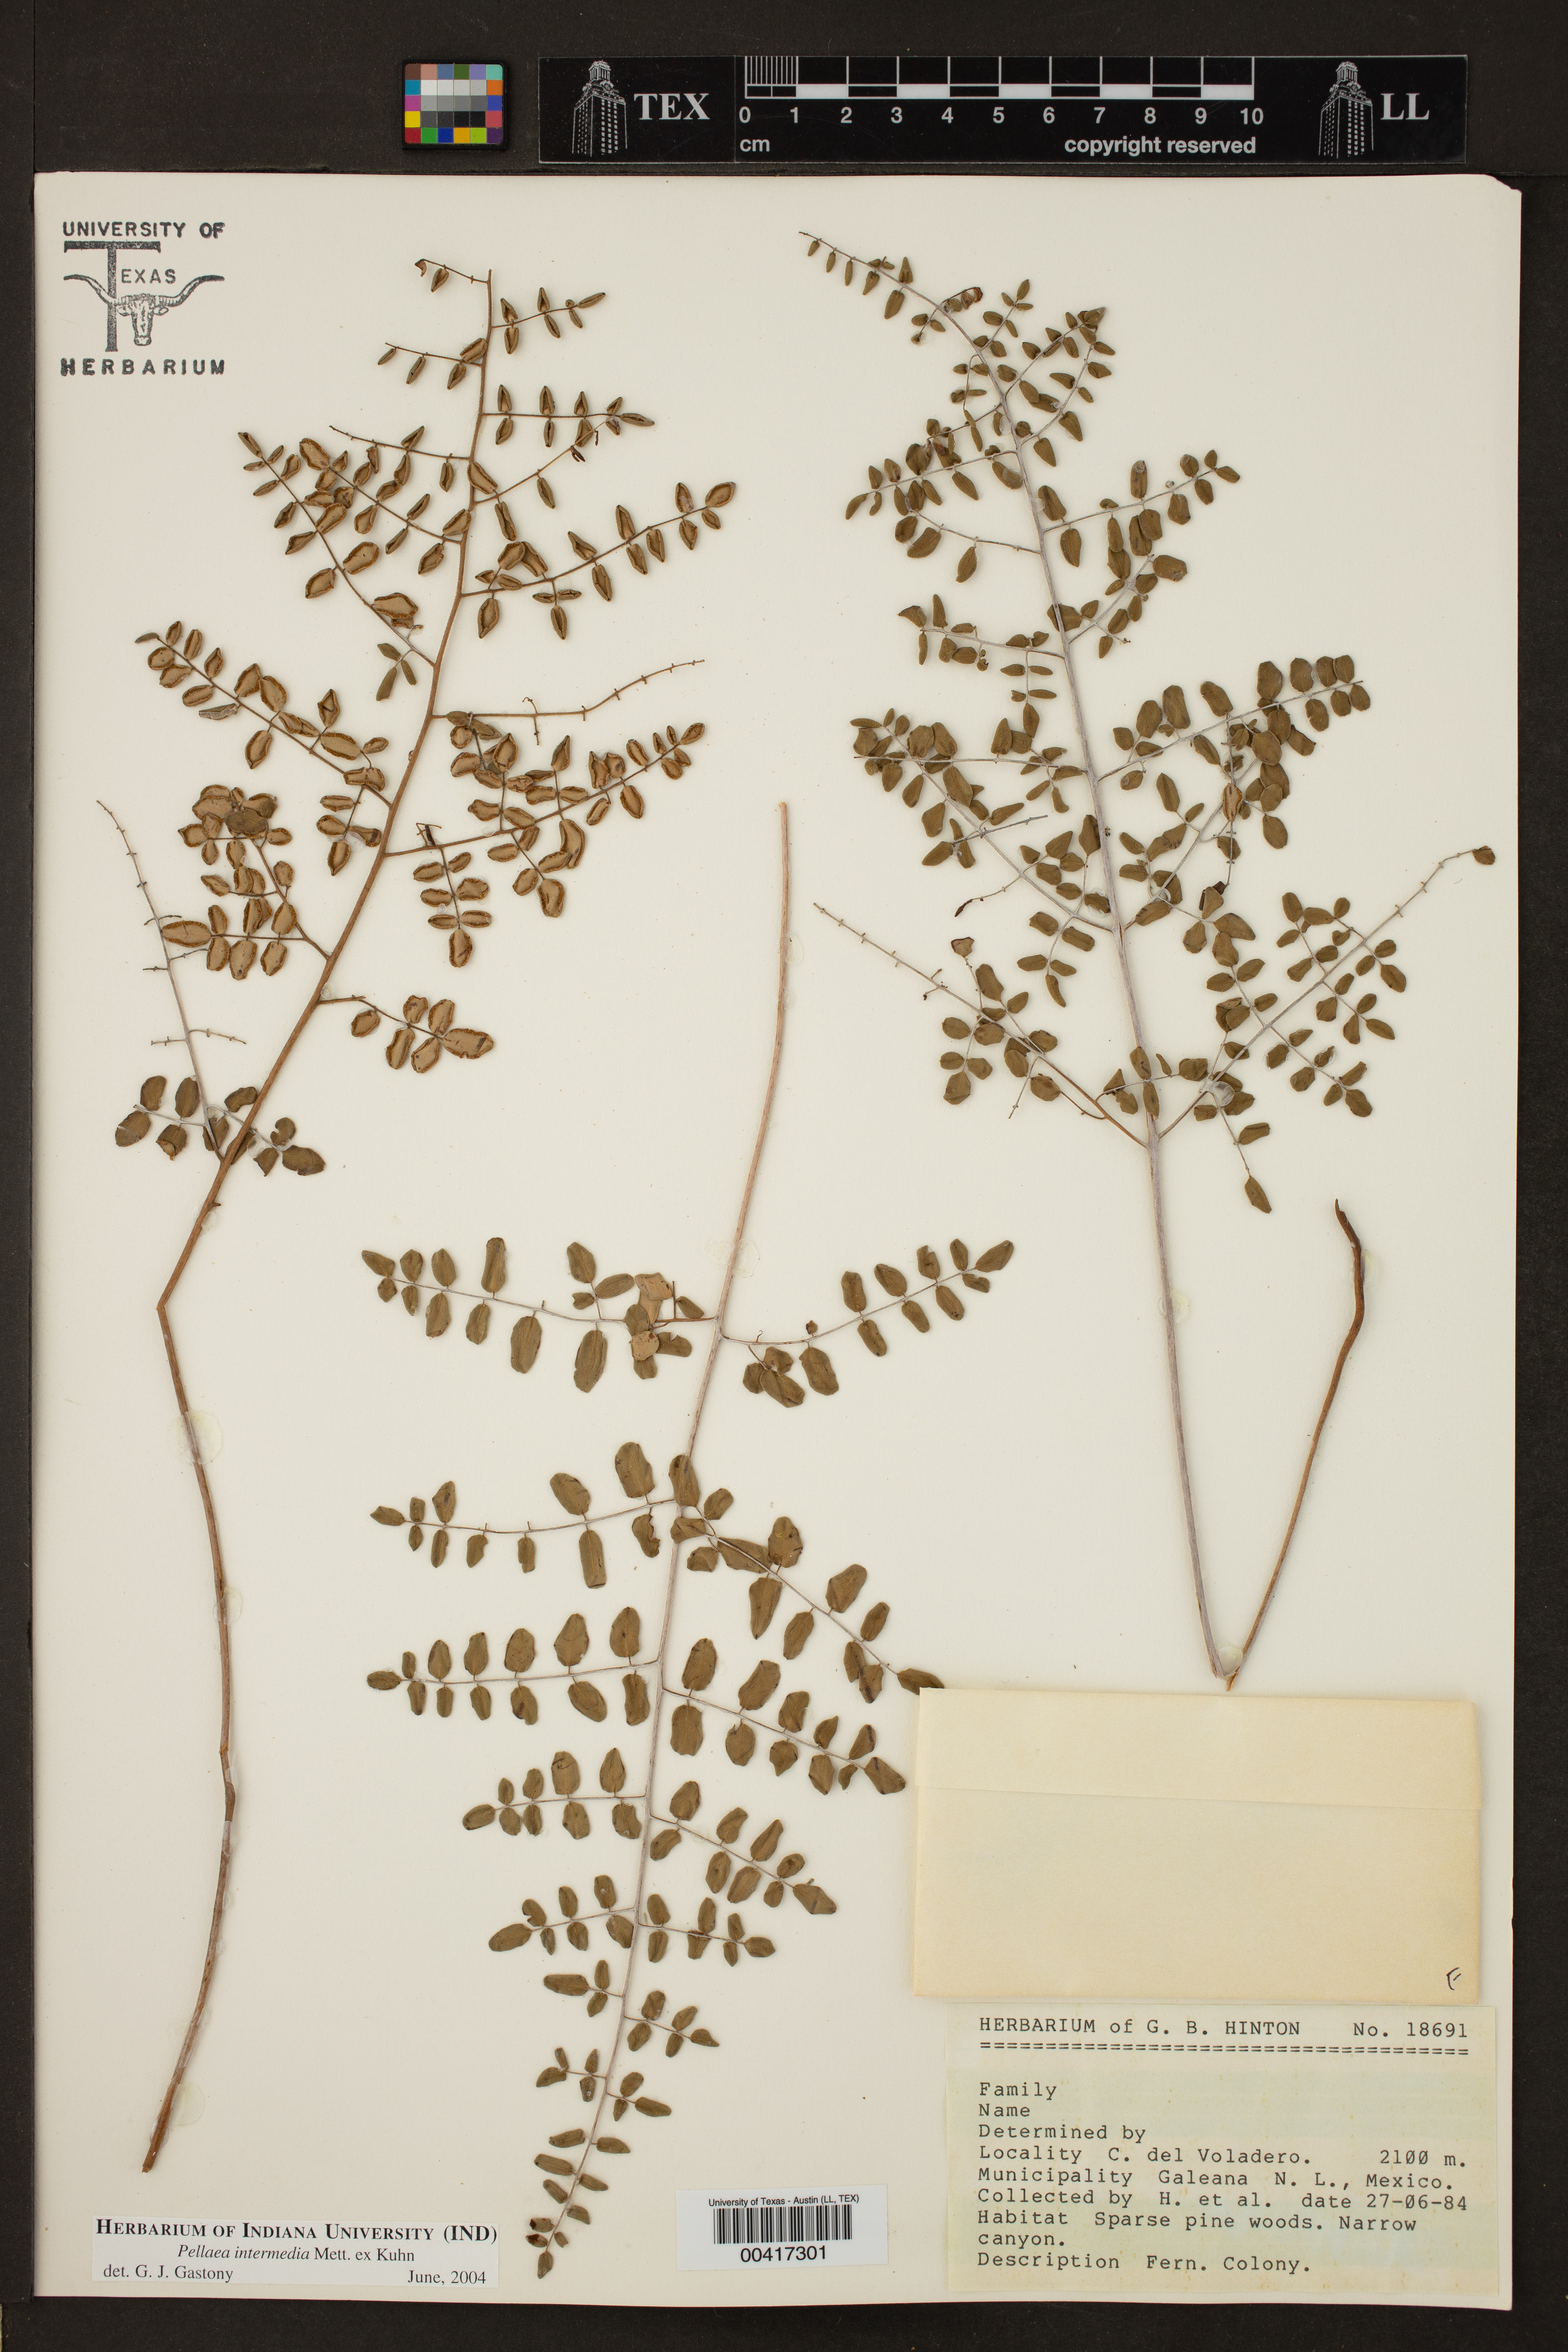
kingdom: Plantae
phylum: Tracheophyta
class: Polypodiopsida
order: Polypodiales
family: Pteridaceae
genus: Pellaea
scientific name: Pellaea intermedia
